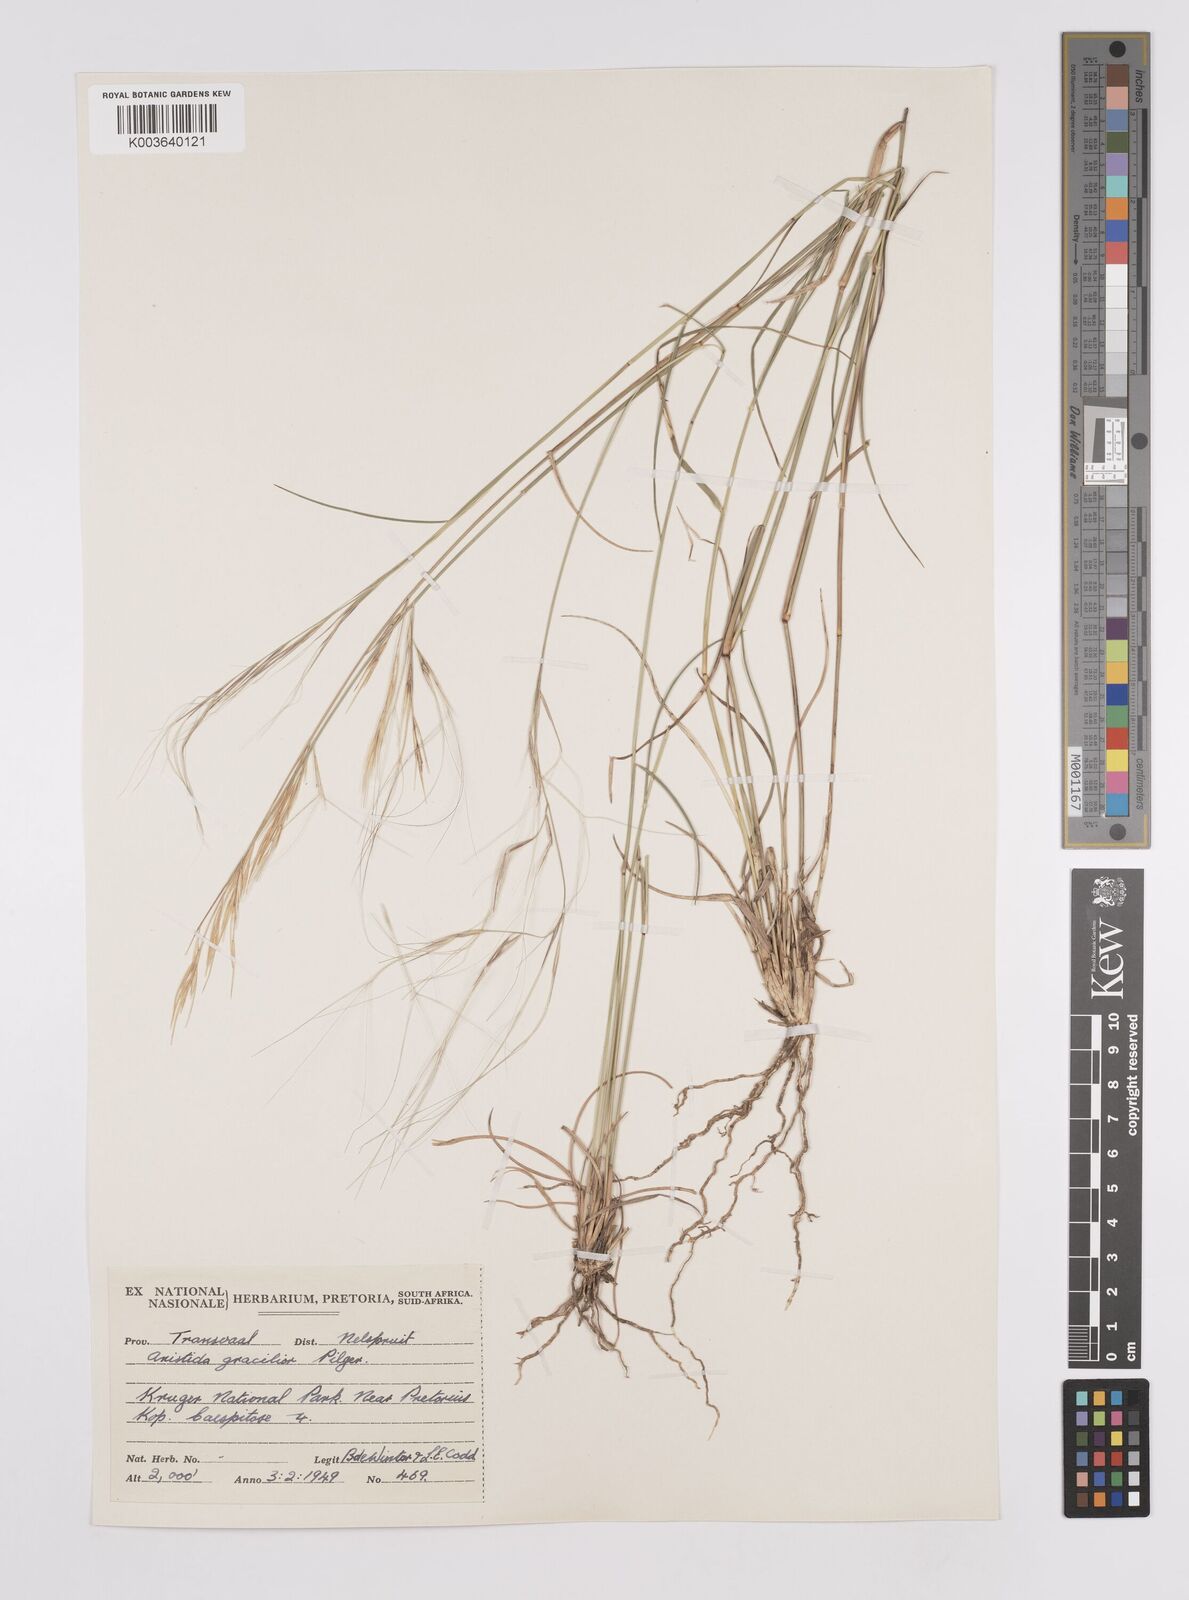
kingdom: Plantae
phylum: Tracheophyta
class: Liliopsida
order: Poales
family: Poaceae
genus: Aristida
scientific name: Aristida stipitata
